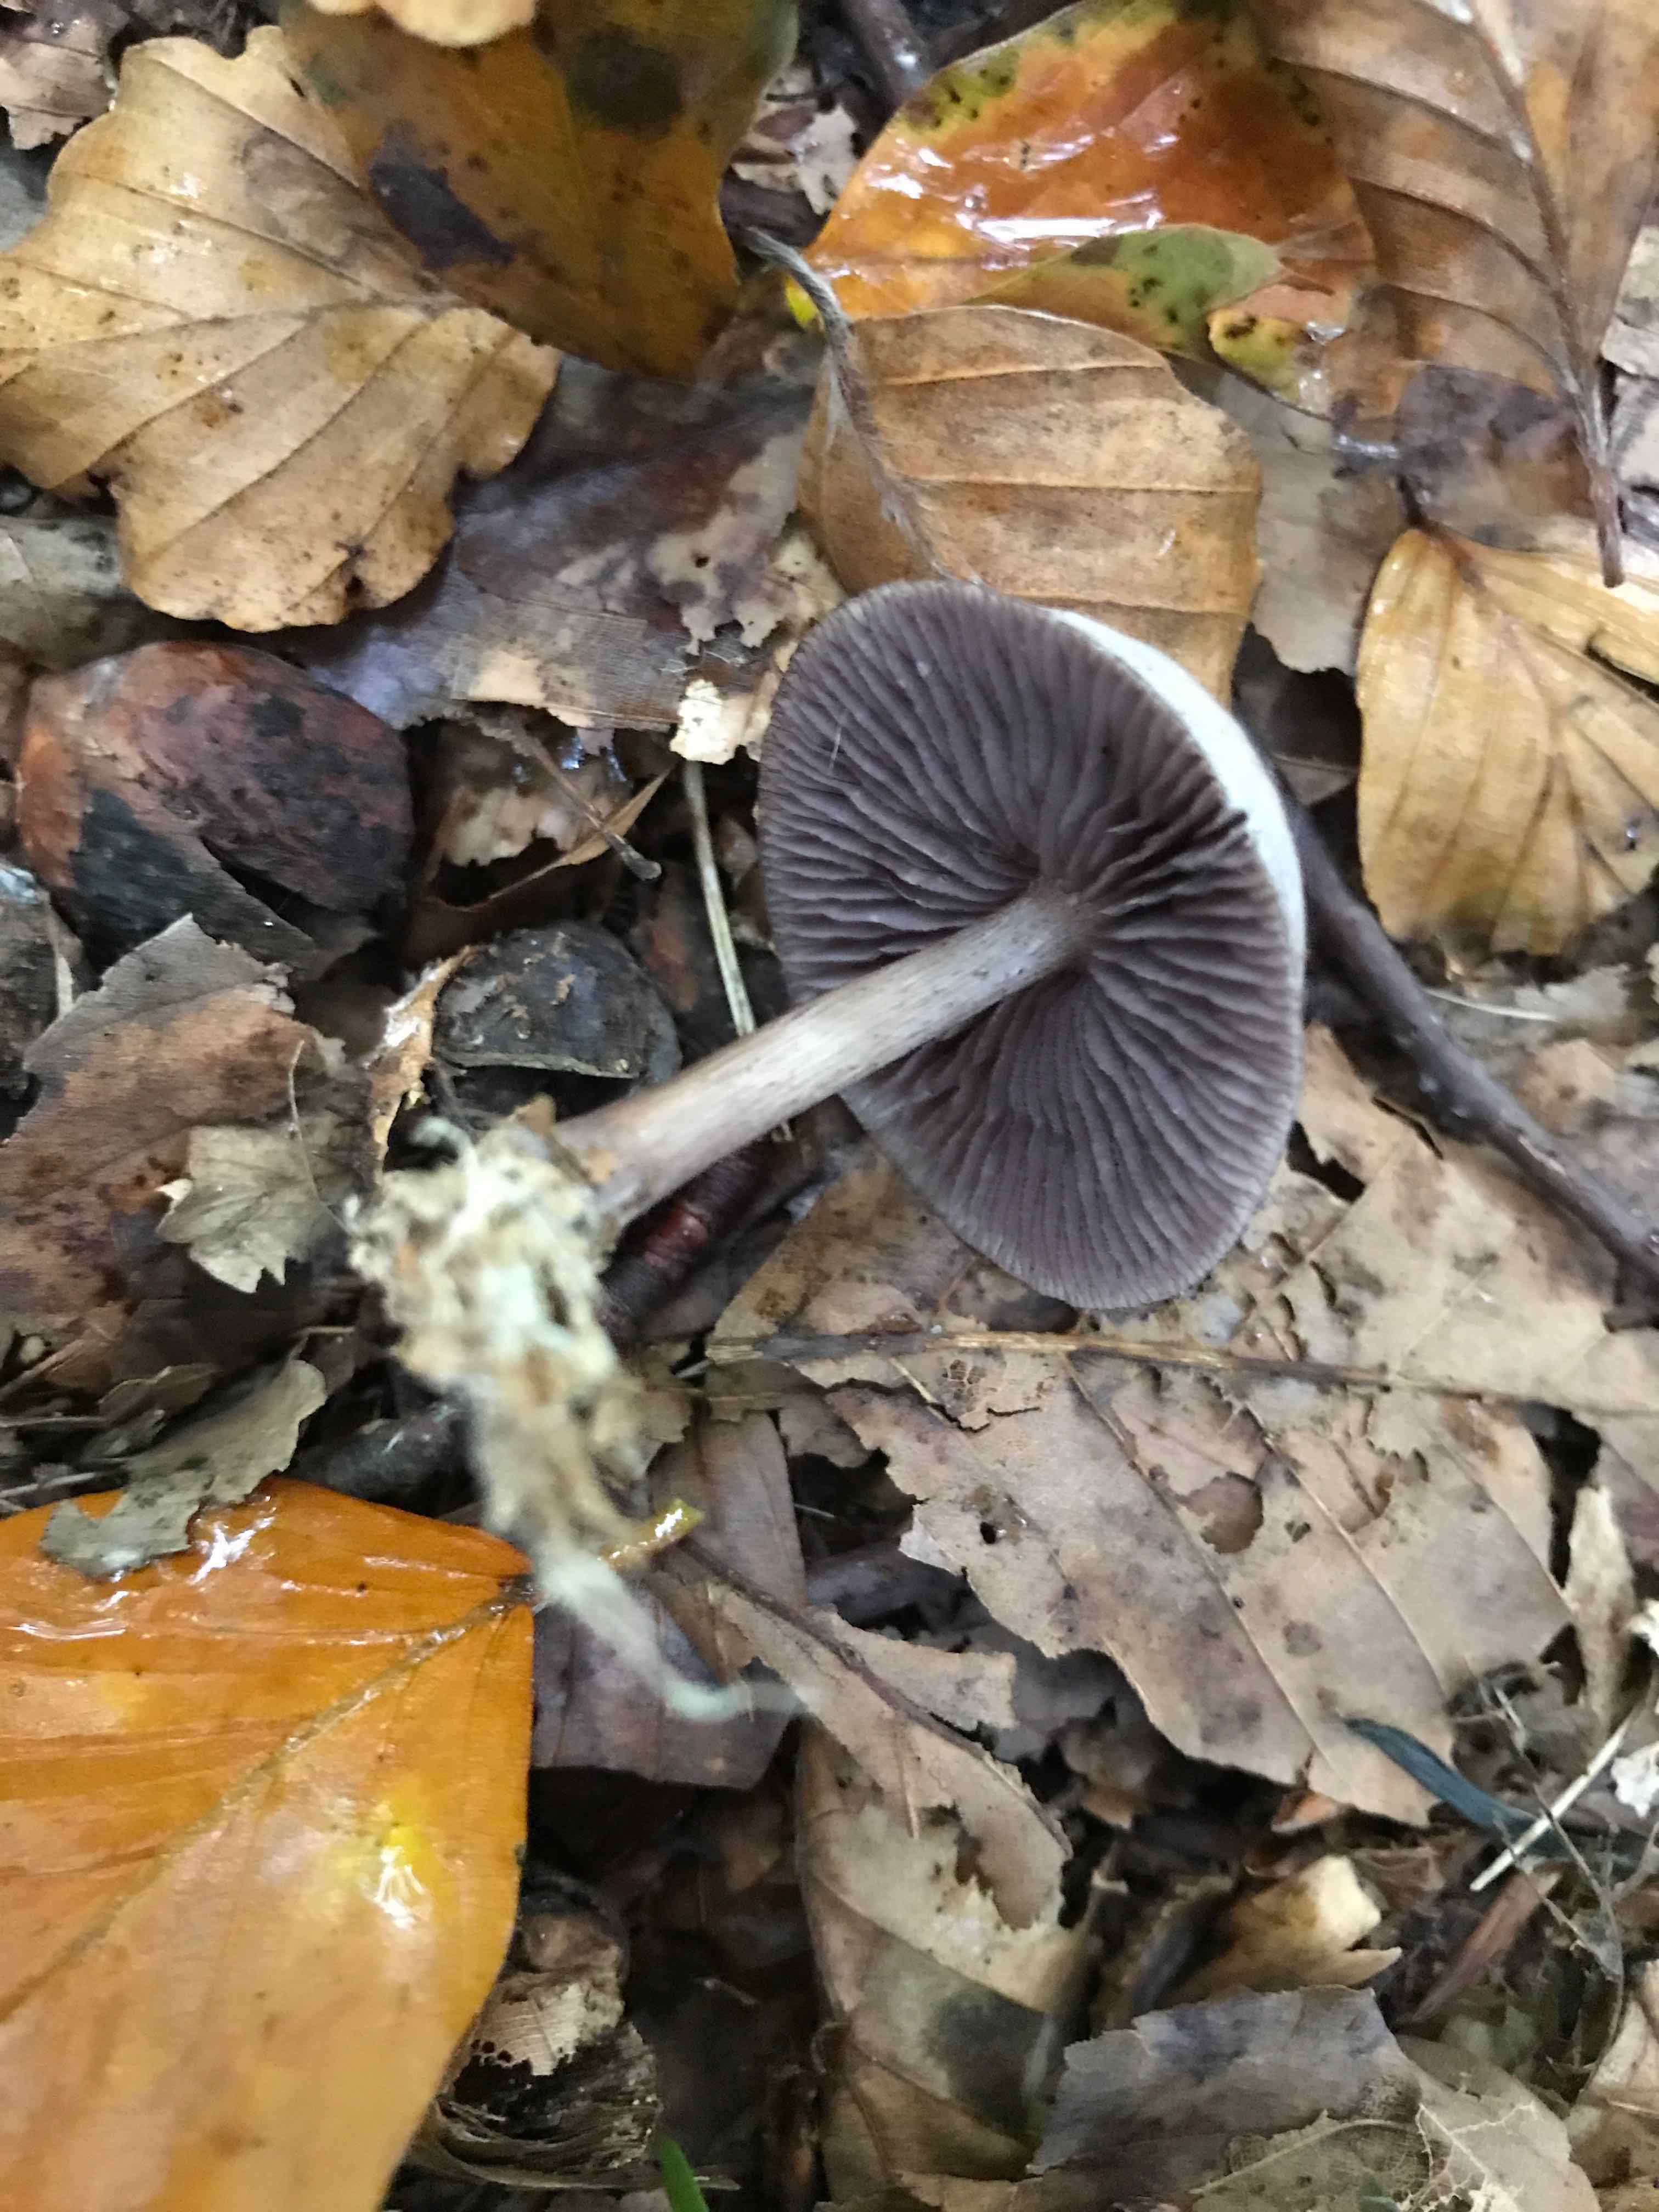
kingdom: Fungi
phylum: Basidiomycota
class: Agaricomycetes
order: Agaricales
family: Mycenaceae
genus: Mycena
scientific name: Mycena pelianthina
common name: mørkbladet huesvamp
